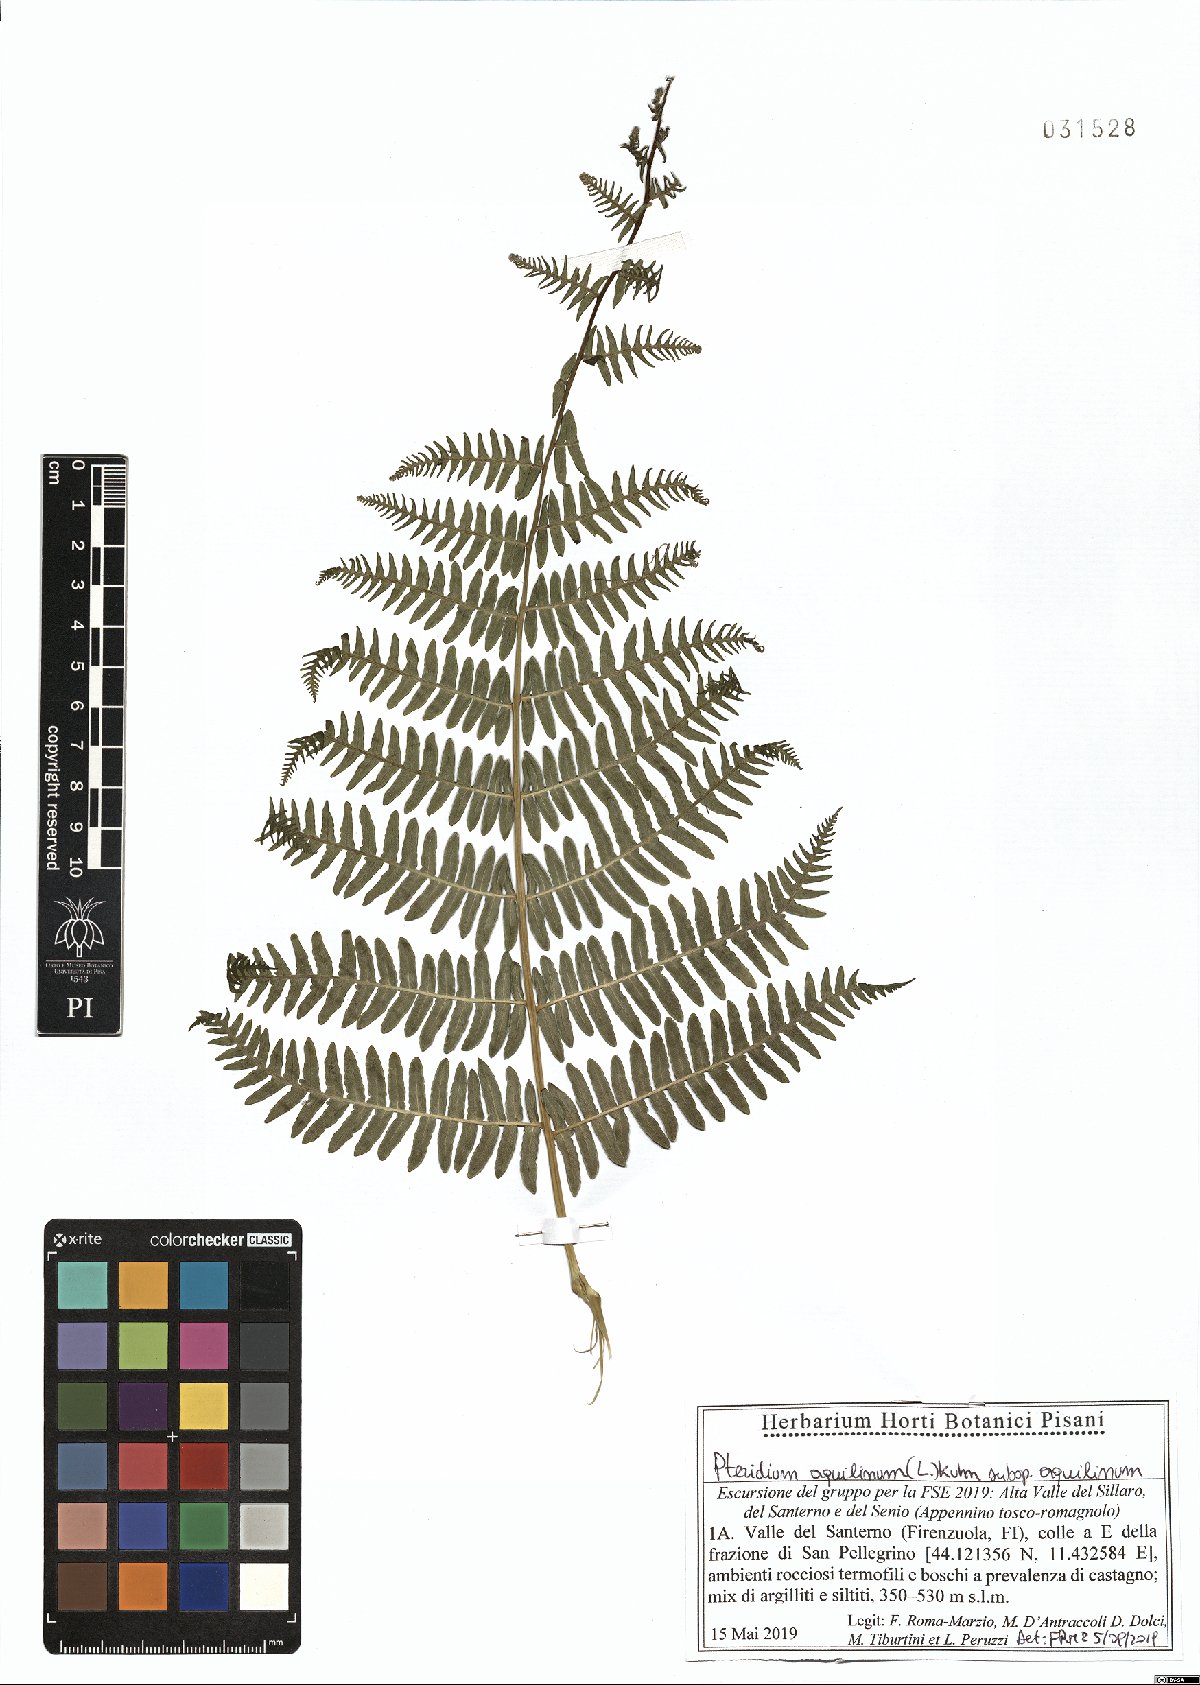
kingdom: Plantae
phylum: Tracheophyta
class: Polypodiopsida
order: Polypodiales
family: Dennstaedtiaceae
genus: Pteridium
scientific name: Pteridium aquilinum
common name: Bracken
